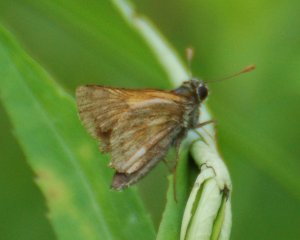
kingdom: Animalia
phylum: Arthropoda
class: Insecta
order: Lepidoptera
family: Hesperiidae
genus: Polites
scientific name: Polites
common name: Long Dash Skipper
